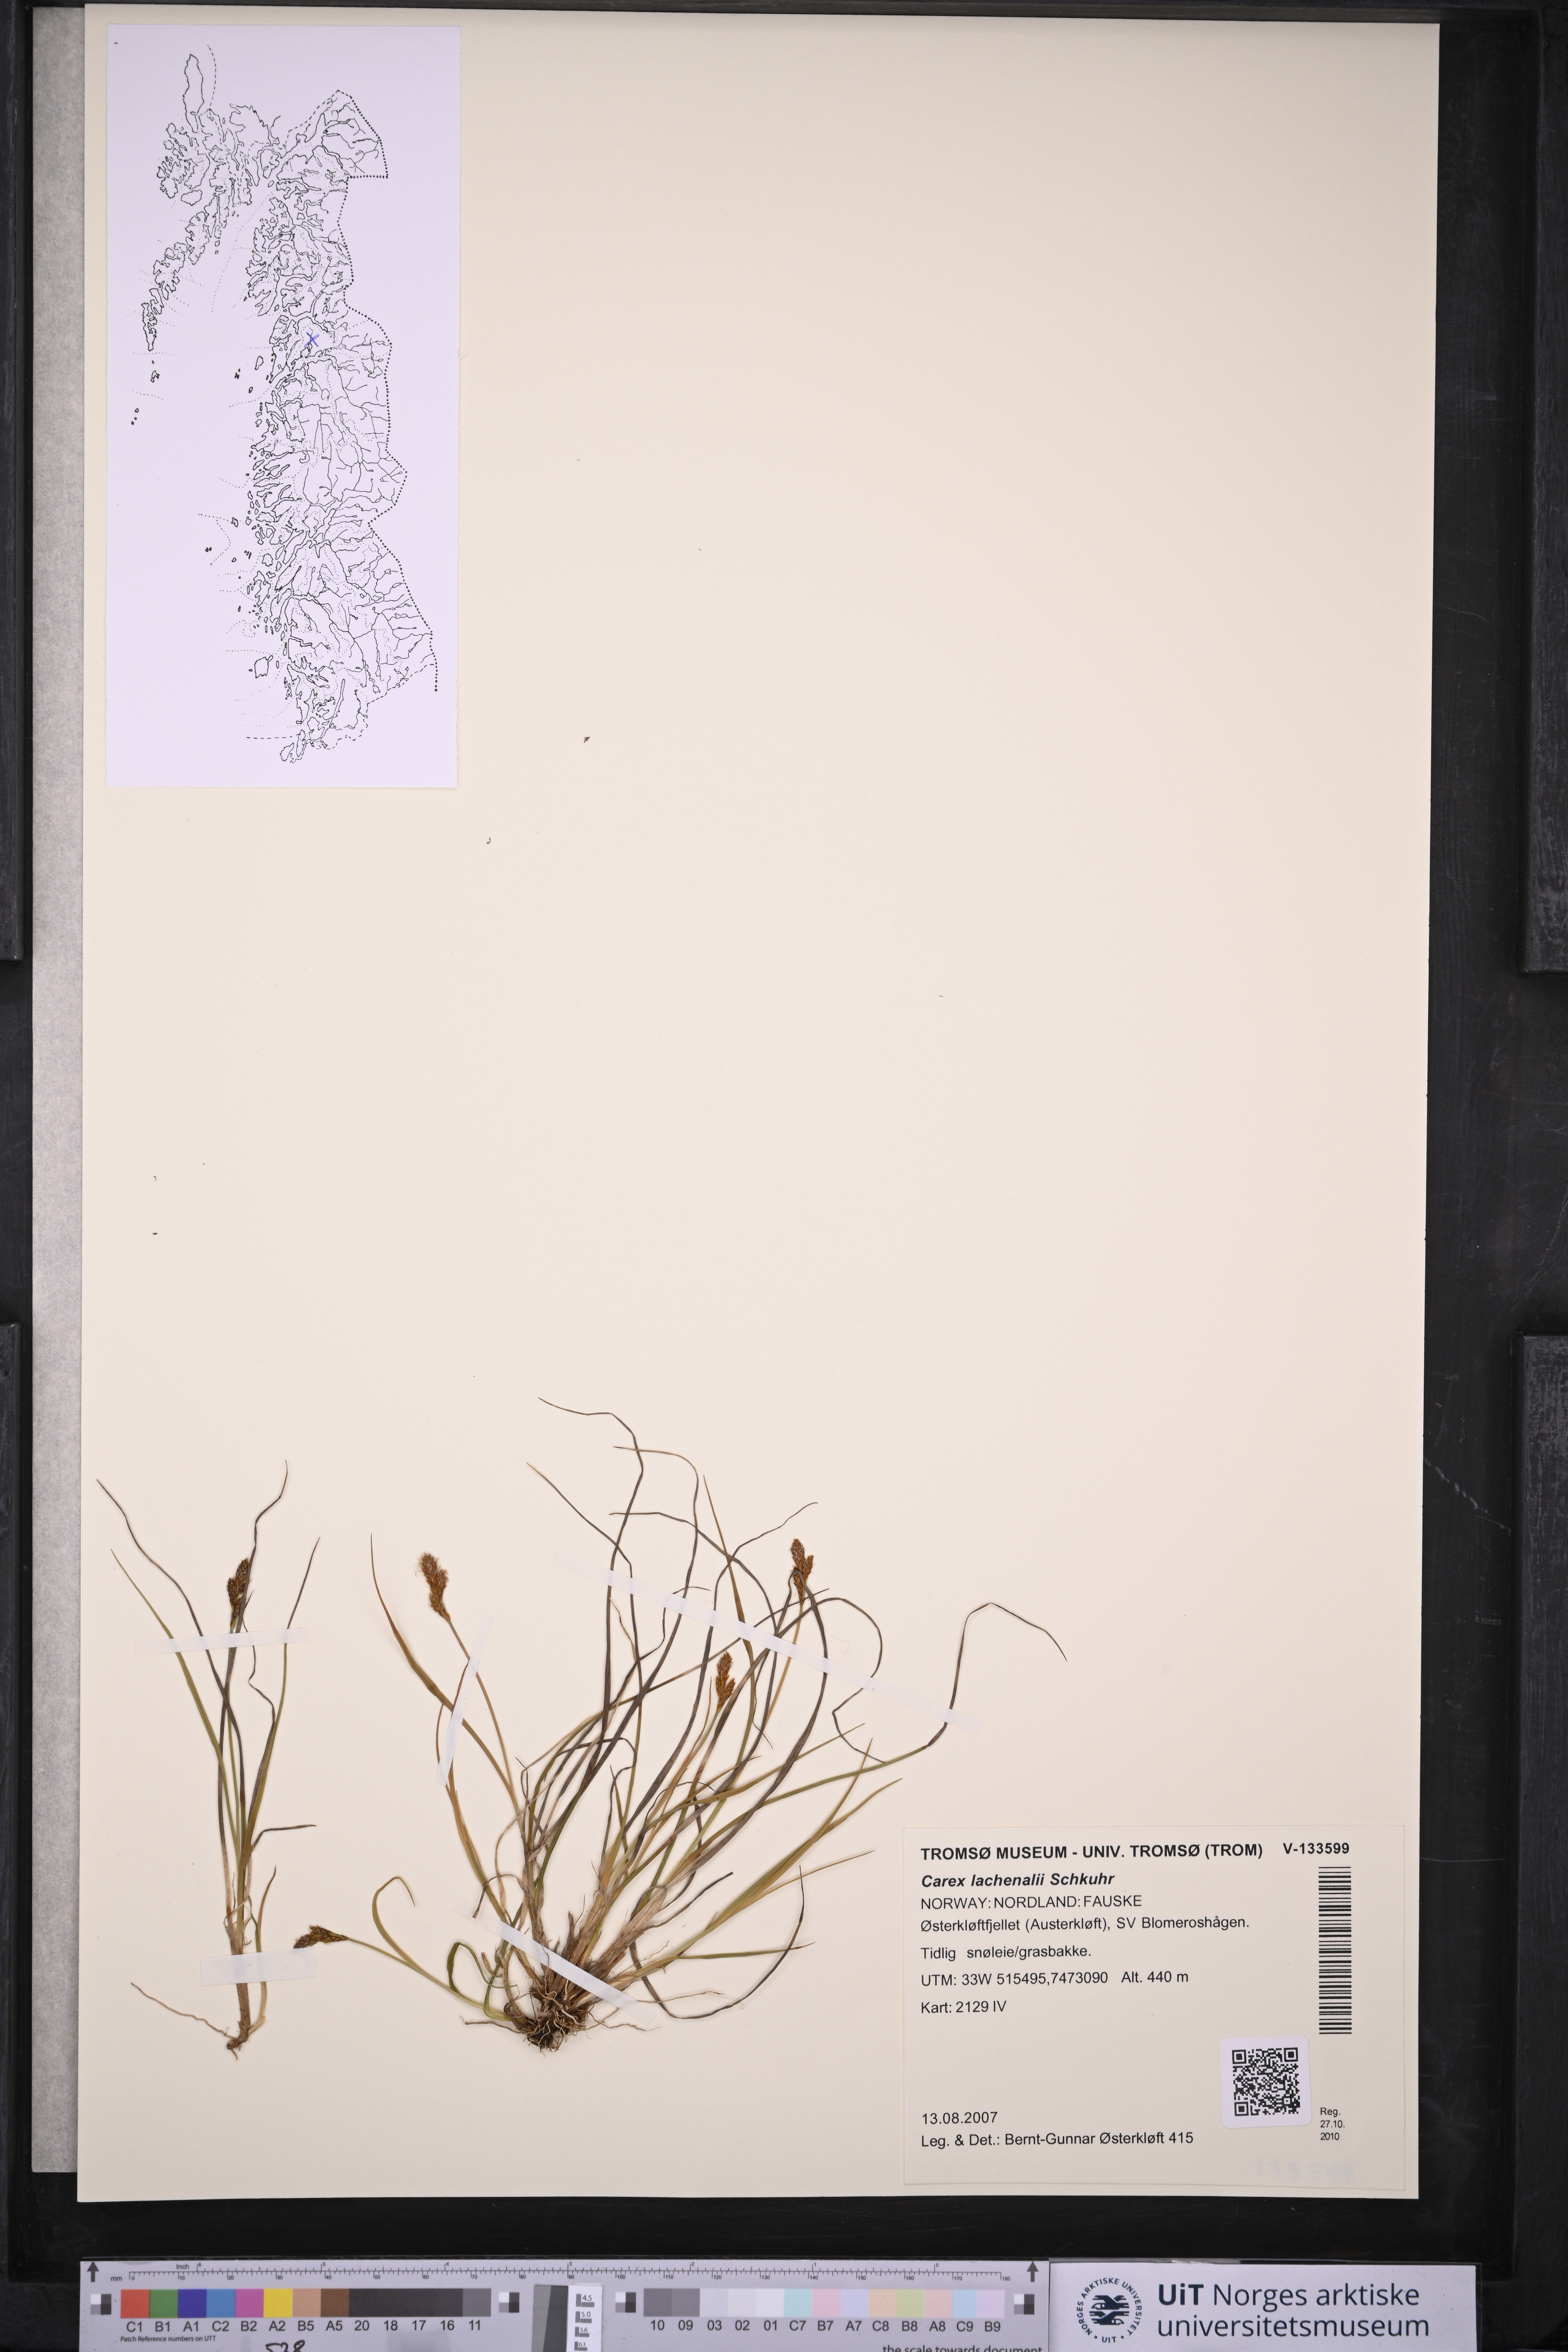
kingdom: Plantae
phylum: Tracheophyta
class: Liliopsida
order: Poales
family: Cyperaceae
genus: Carex
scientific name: Carex lachenalii
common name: Hare's-foot sedge
